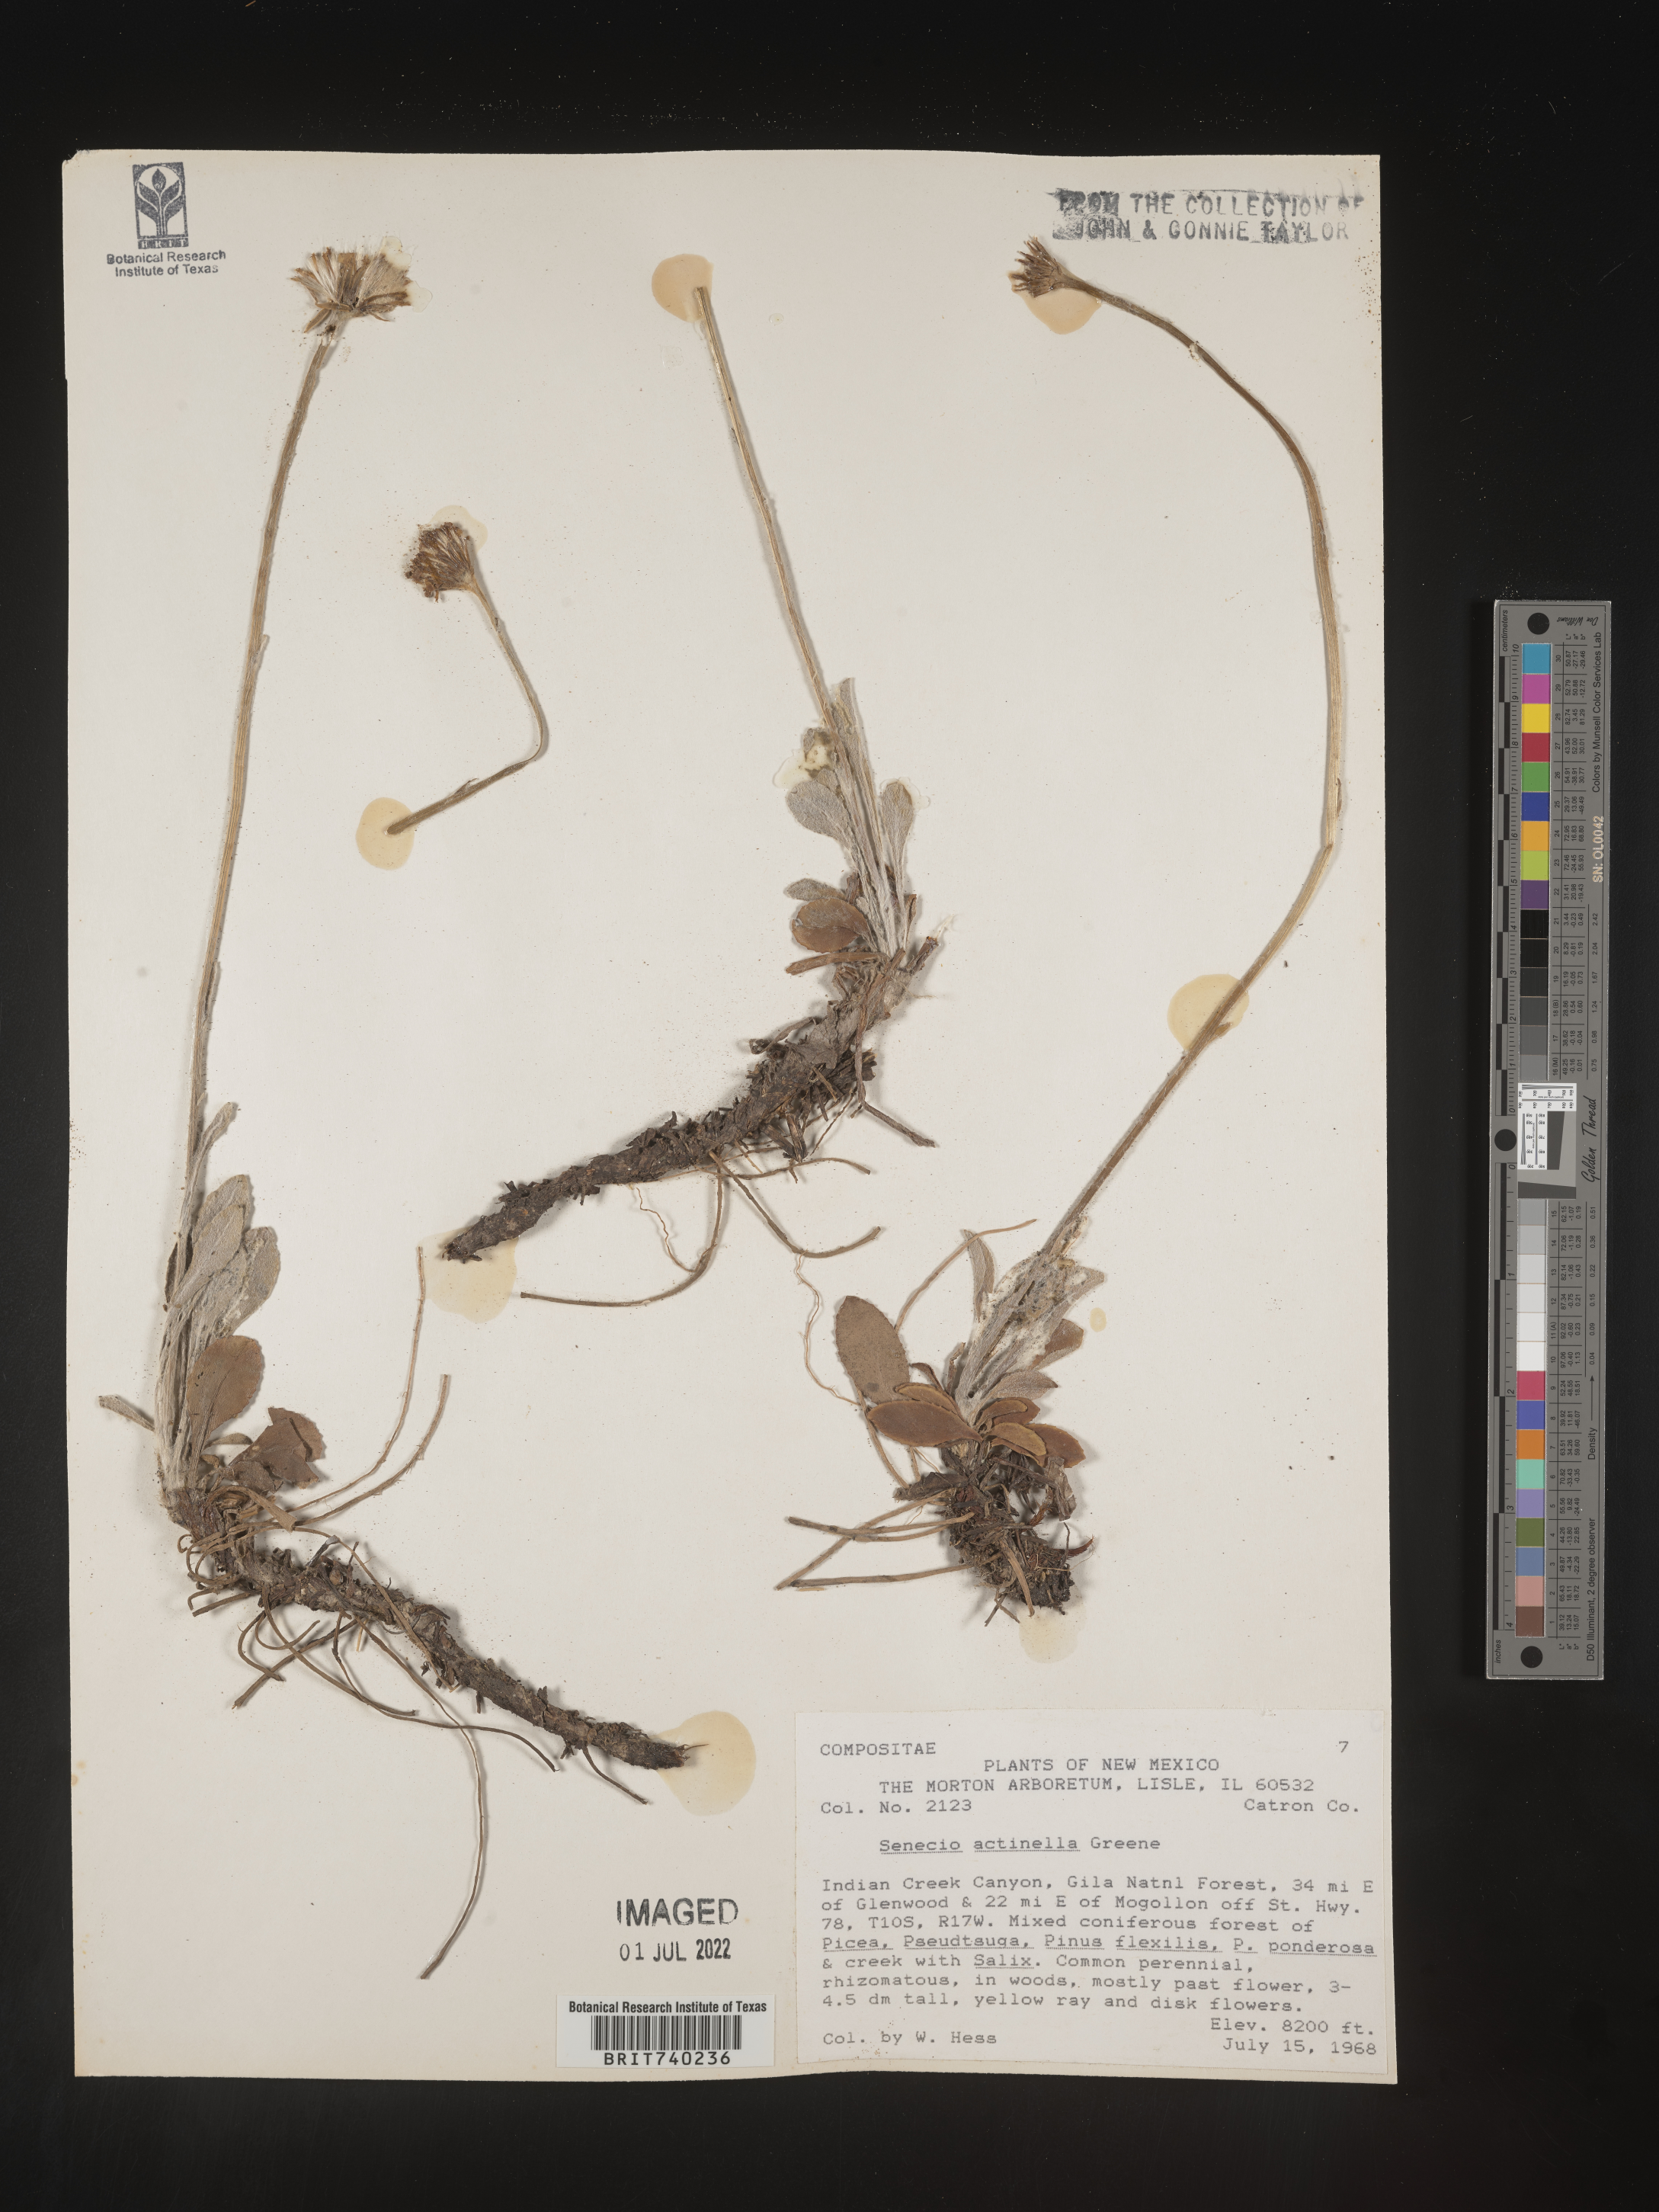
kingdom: Plantae
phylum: Tracheophyta
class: Magnoliopsida
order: Asterales
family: Asteraceae
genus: Packera
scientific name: Packera actinella
